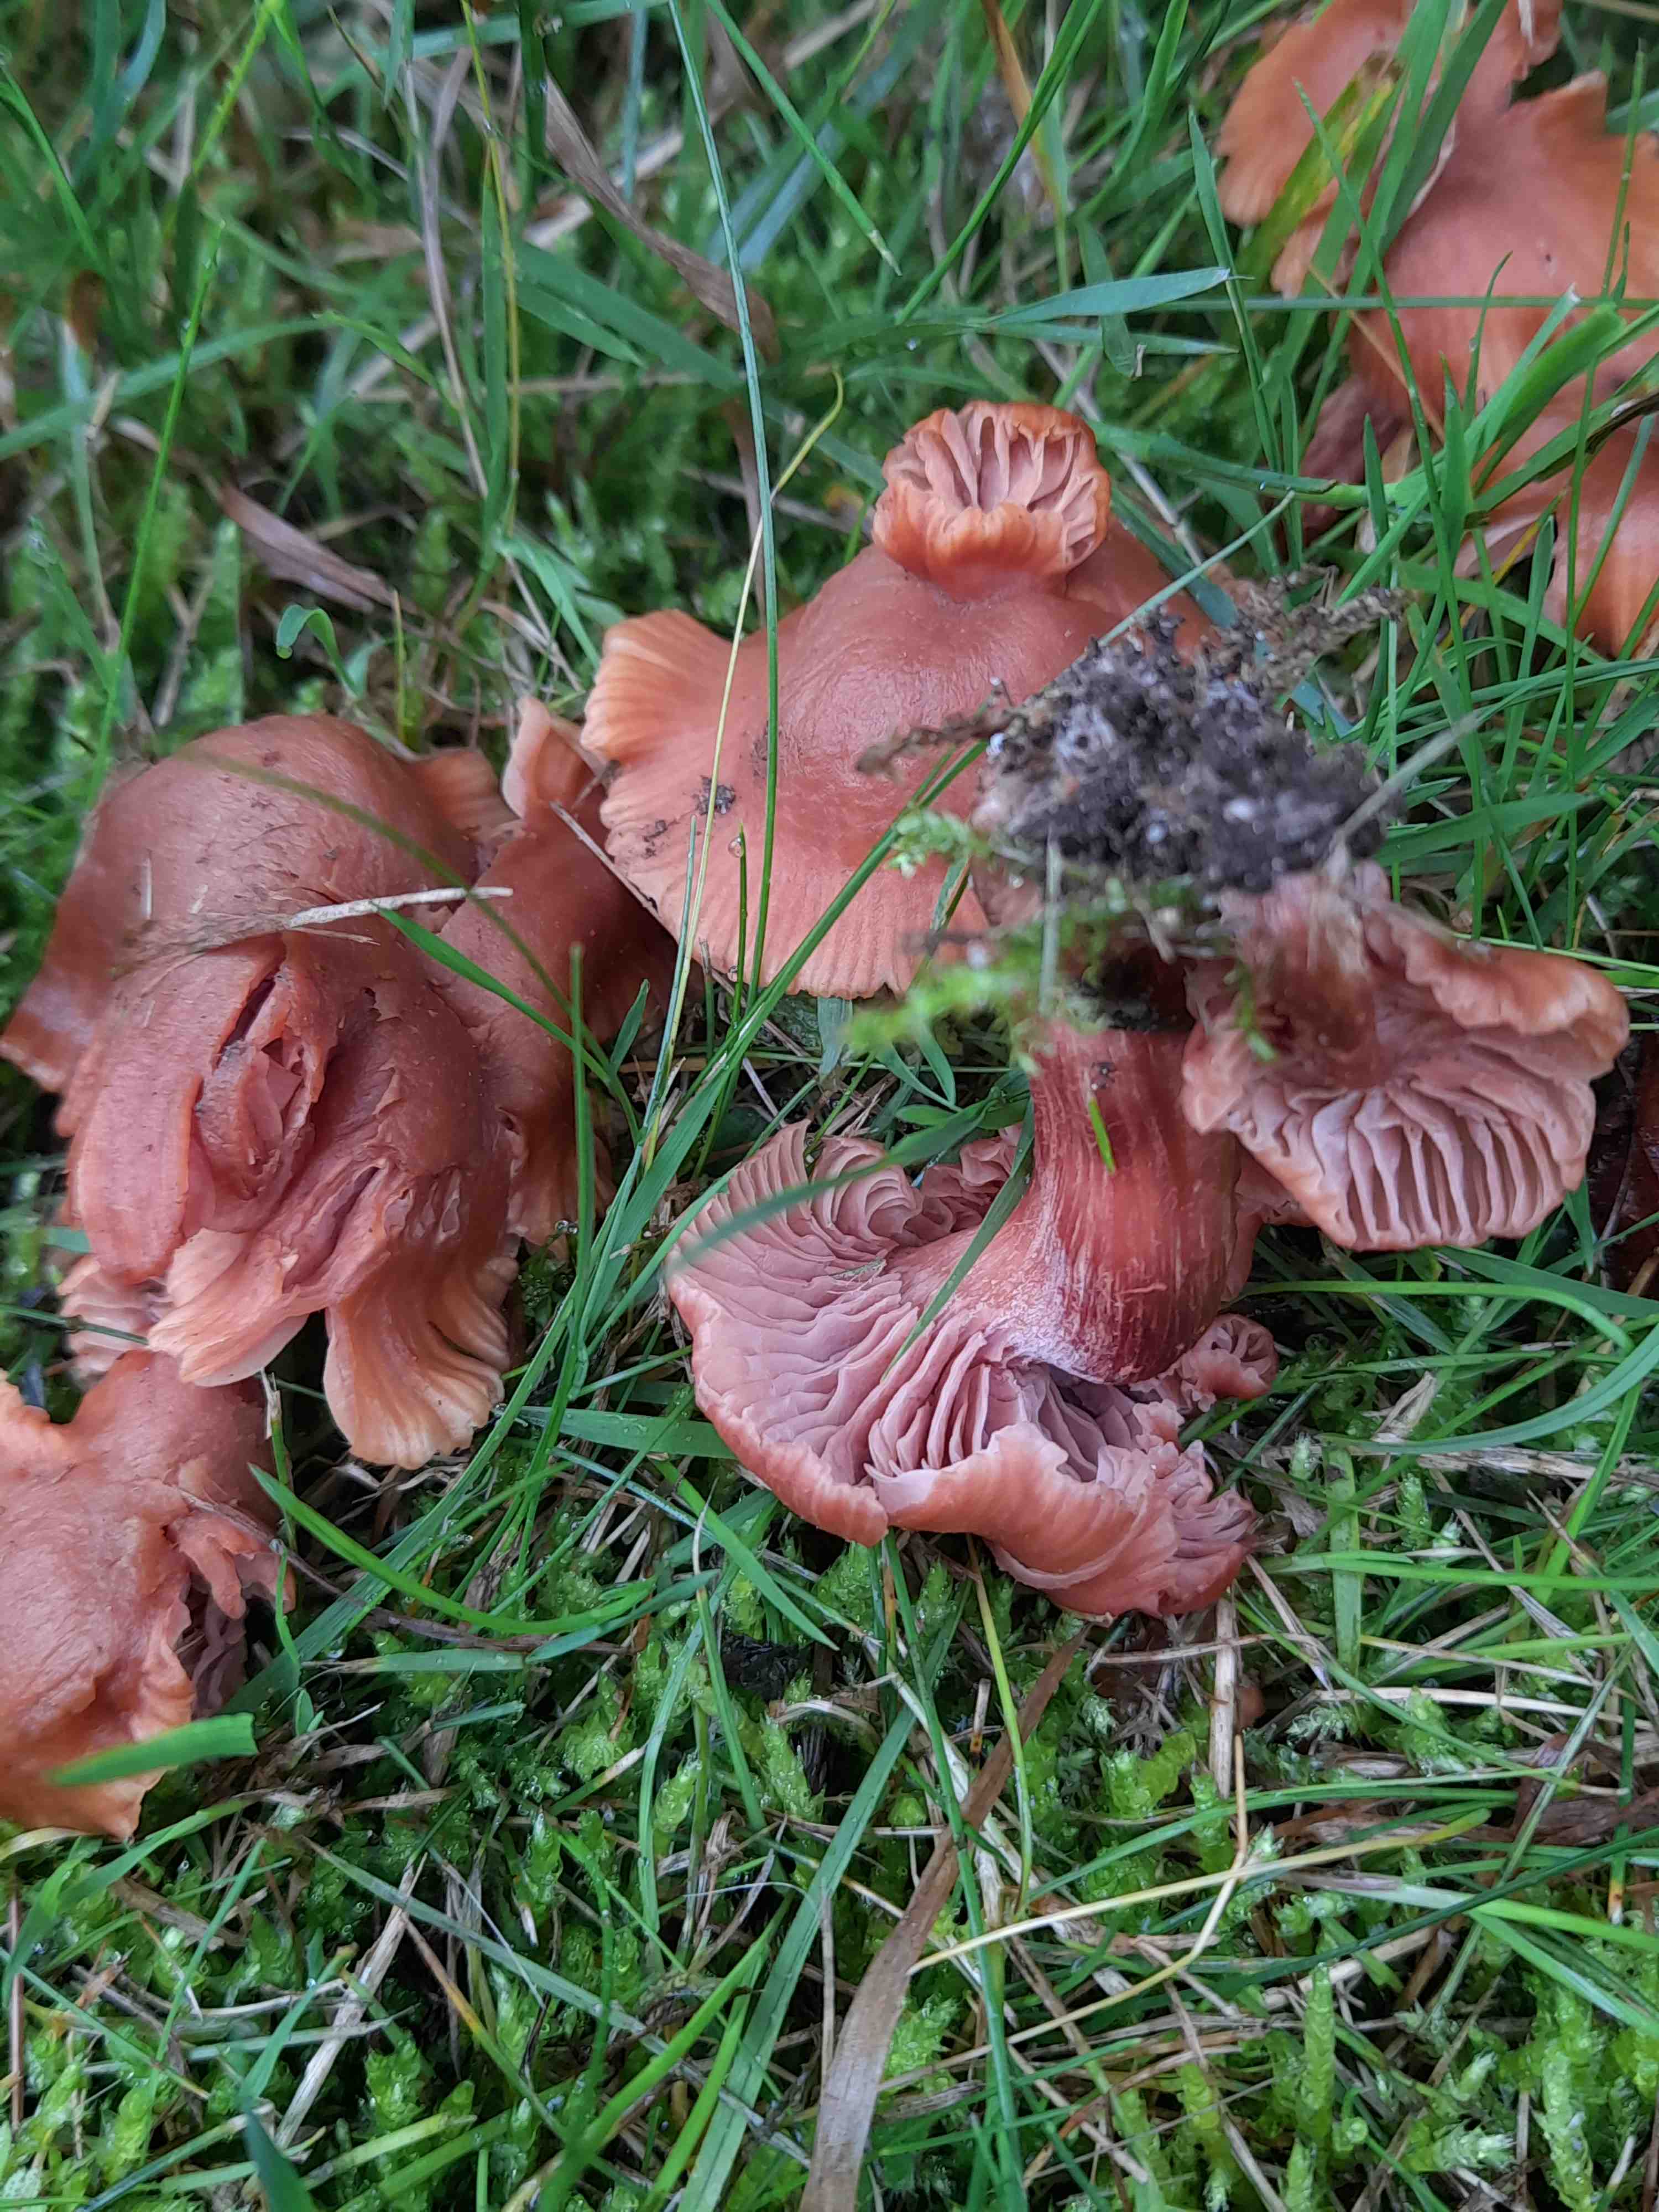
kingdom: Fungi
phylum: Basidiomycota
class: Agaricomycetes
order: Agaricales
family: Hydnangiaceae
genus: Laccaria
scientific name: Laccaria laccata
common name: rød ametysthat
